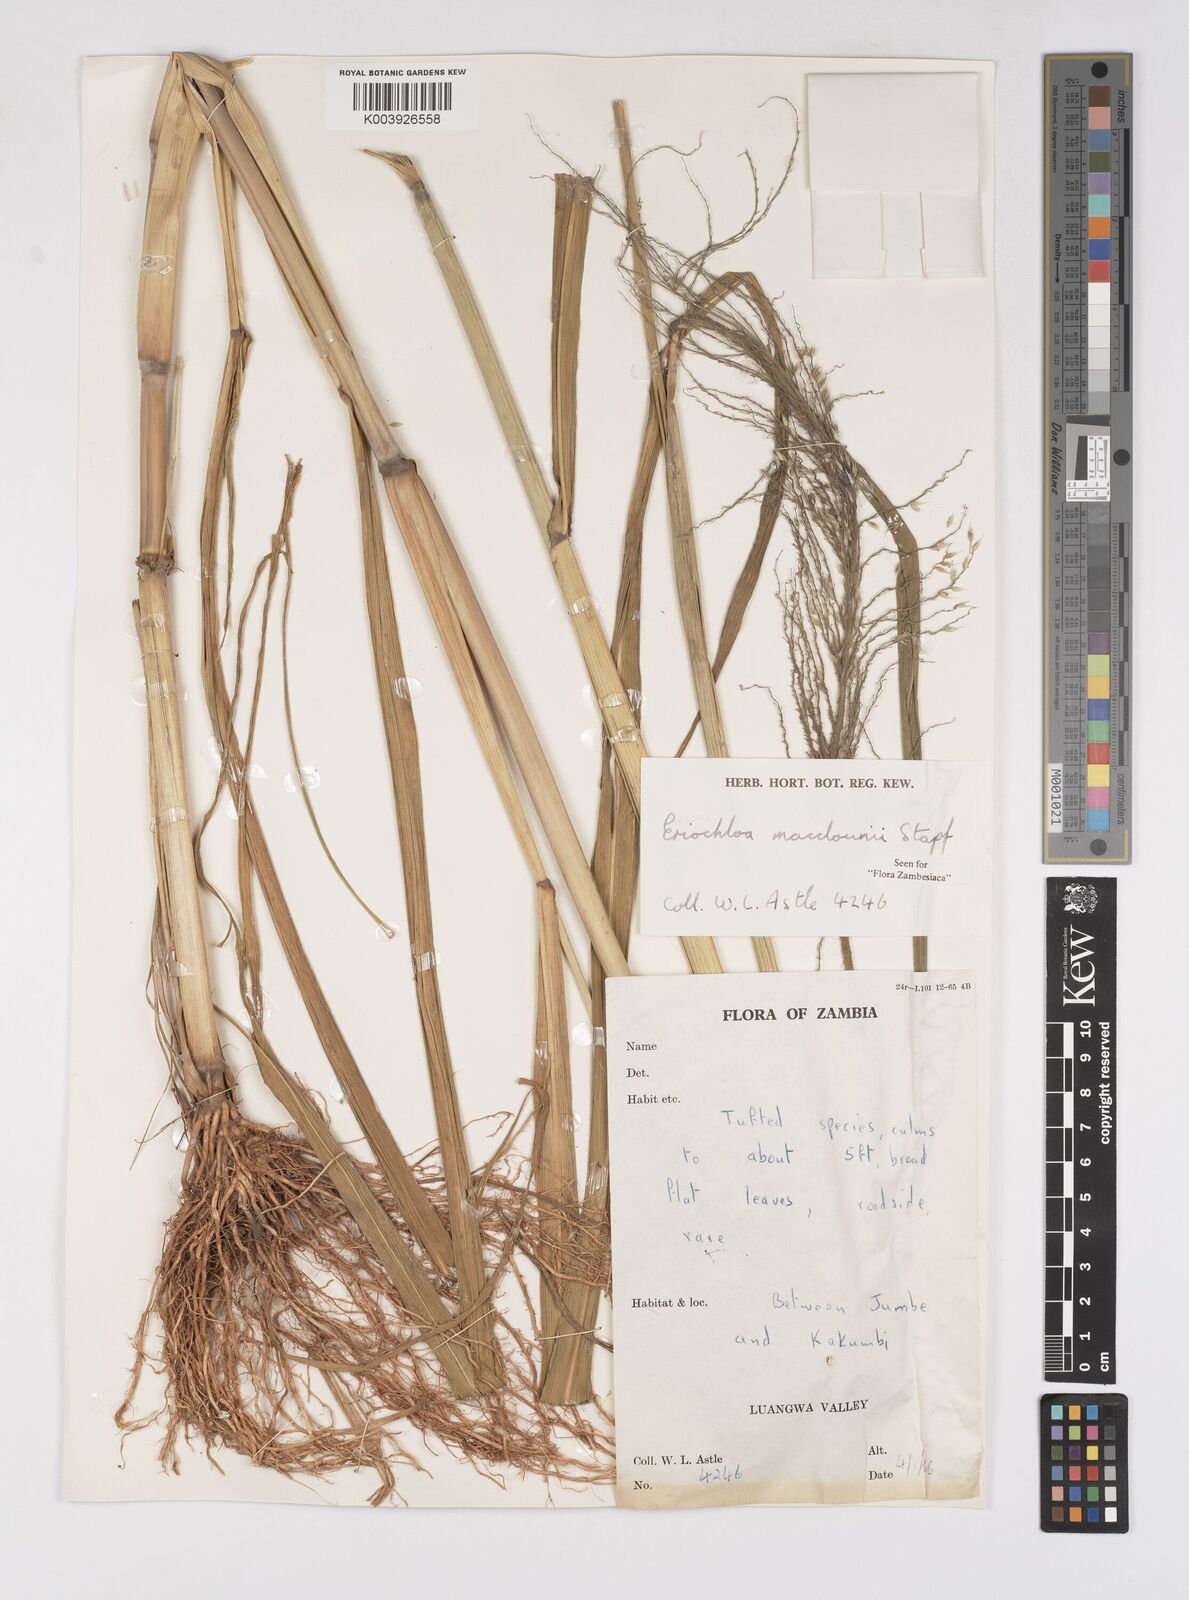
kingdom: Plantae
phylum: Tracheophyta
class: Liliopsida
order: Poales
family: Poaceae
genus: Eriochloa
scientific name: Eriochloa macclounii
